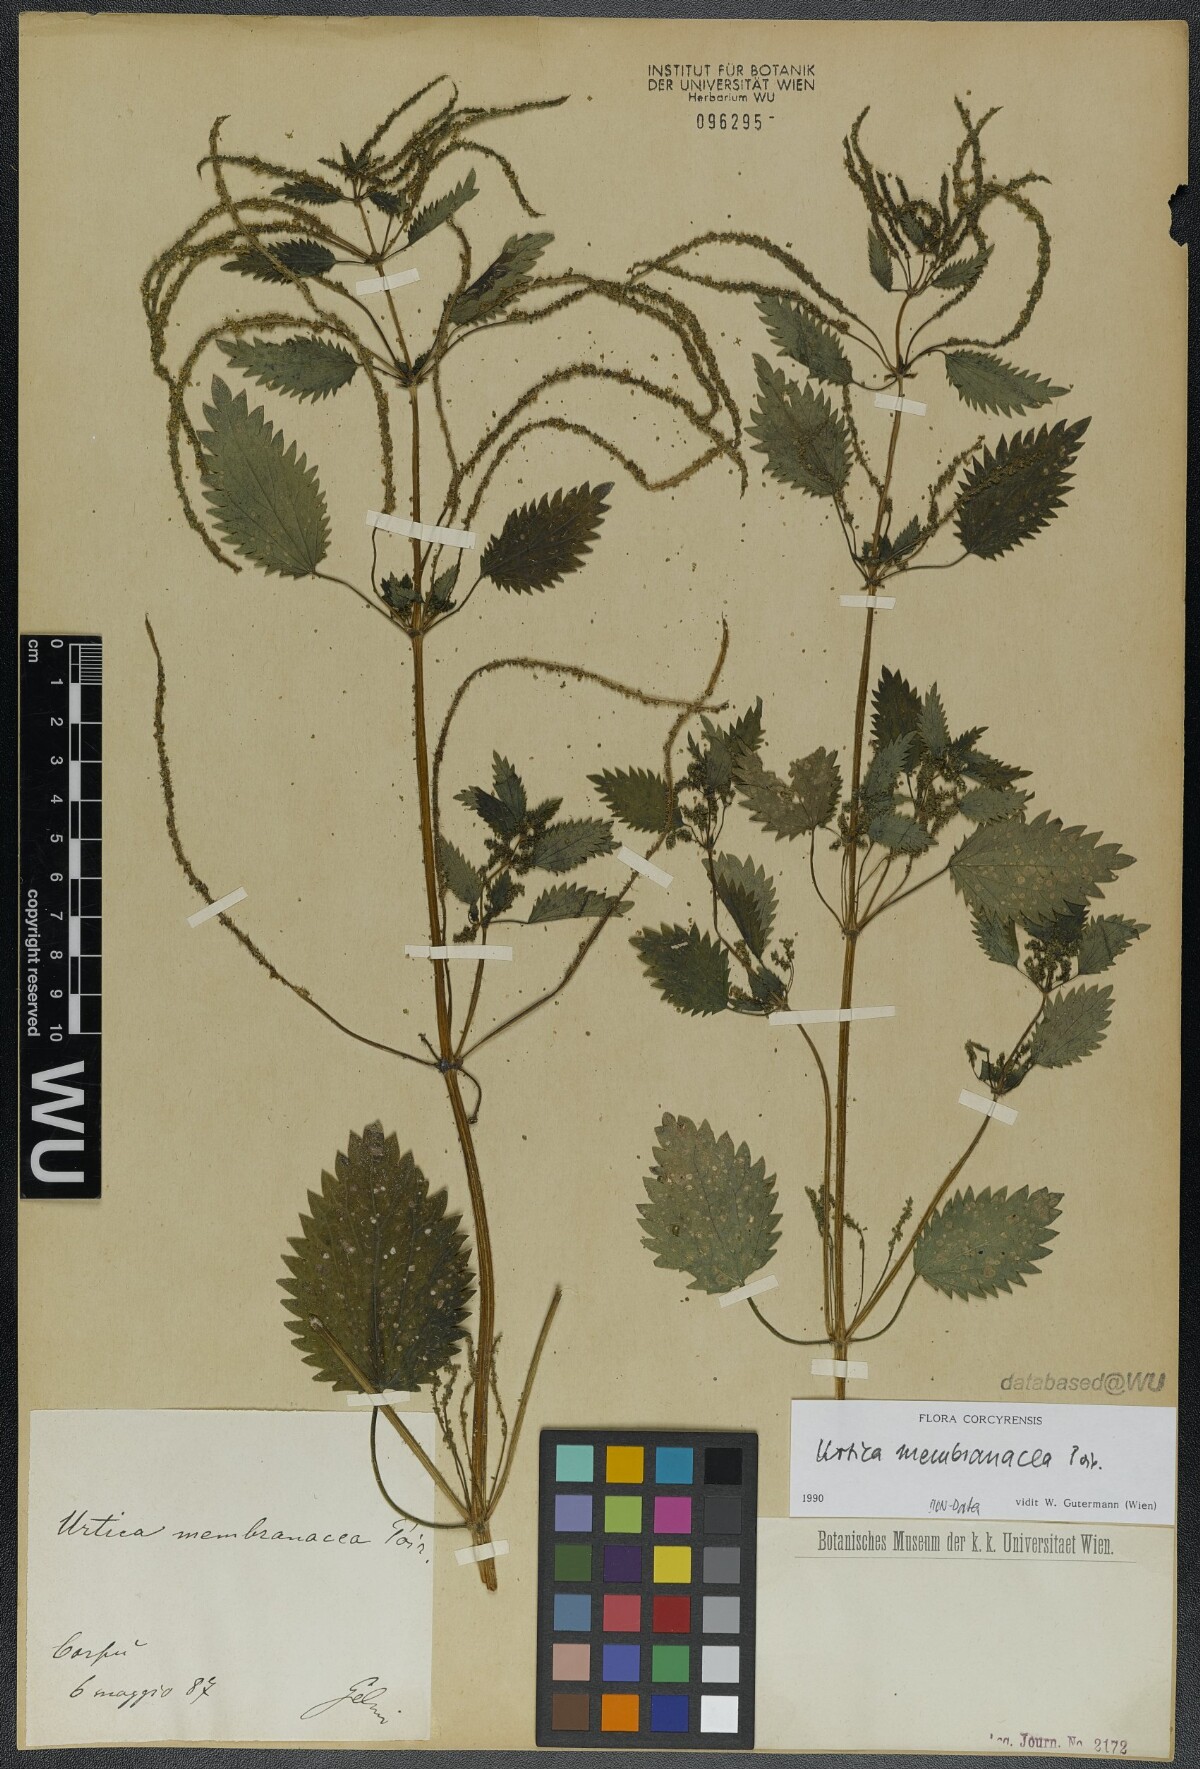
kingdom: Plantae
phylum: Tracheophyta
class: Magnoliopsida
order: Rosales
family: Urticaceae
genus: Urtica
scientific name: Urtica membranacea
